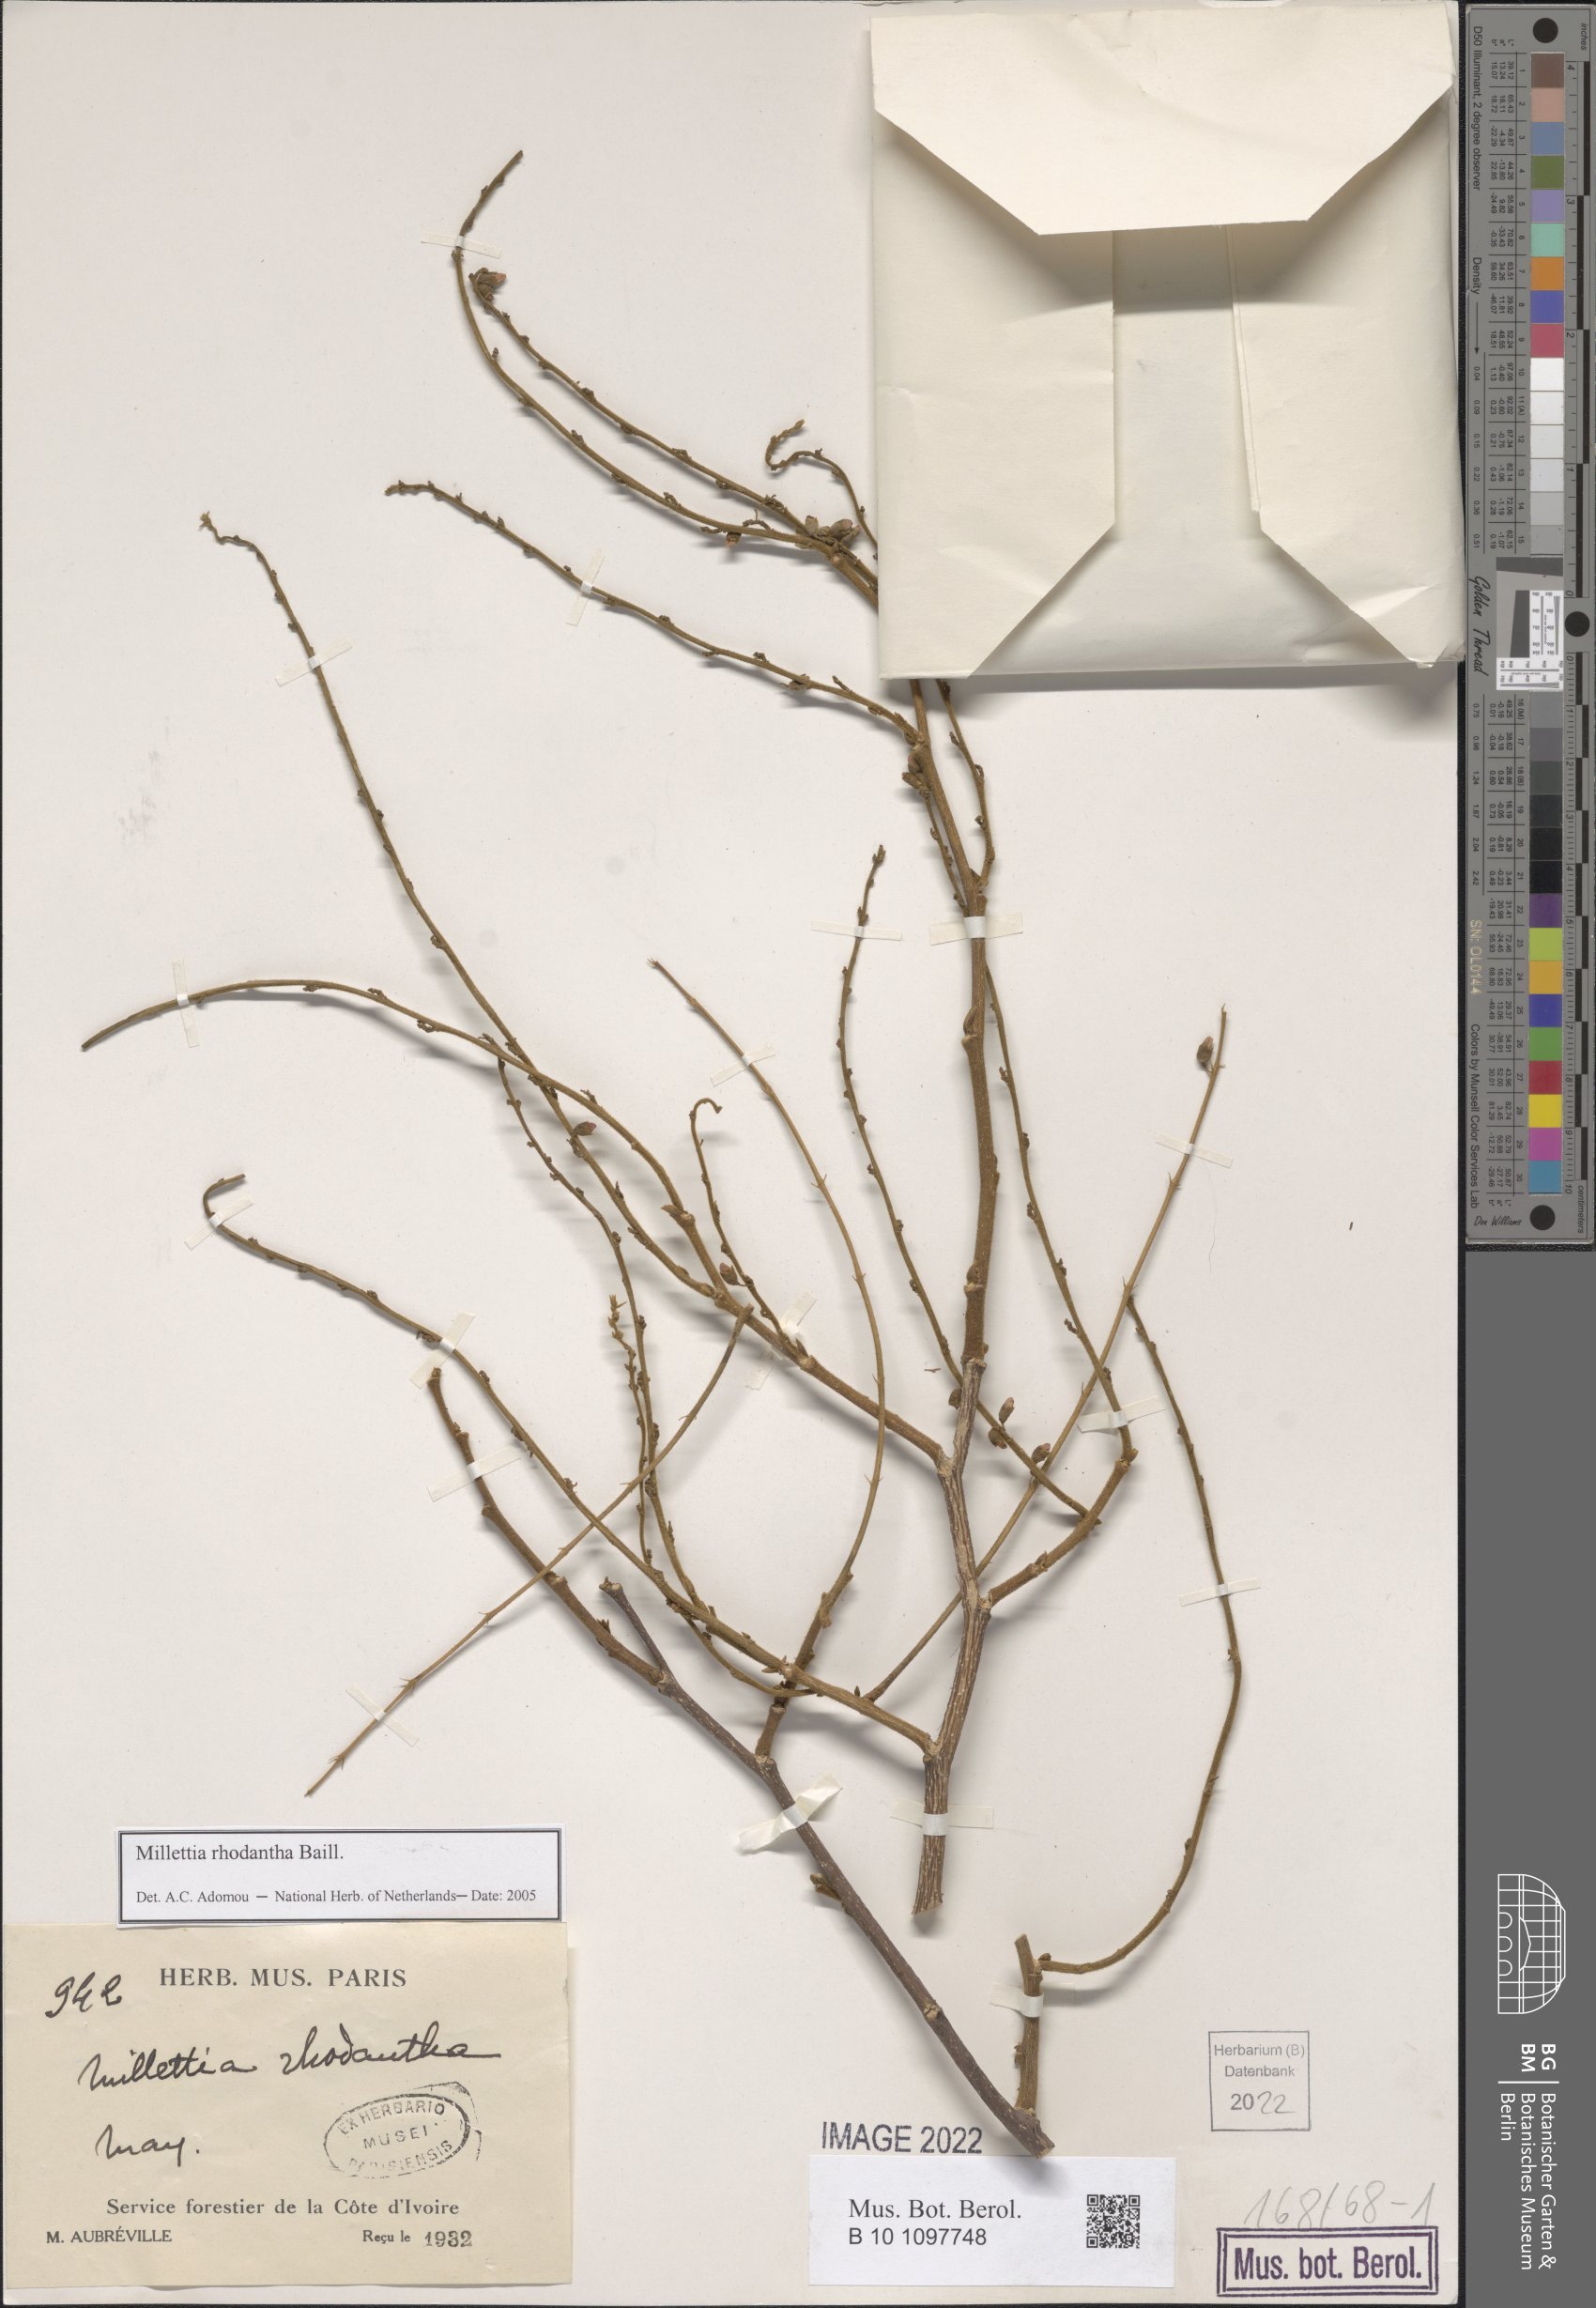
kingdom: Plantae
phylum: Tracheophyta
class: Magnoliopsida
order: Fabales
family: Fabaceae
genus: Millettia
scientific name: Millettia rhodantha
